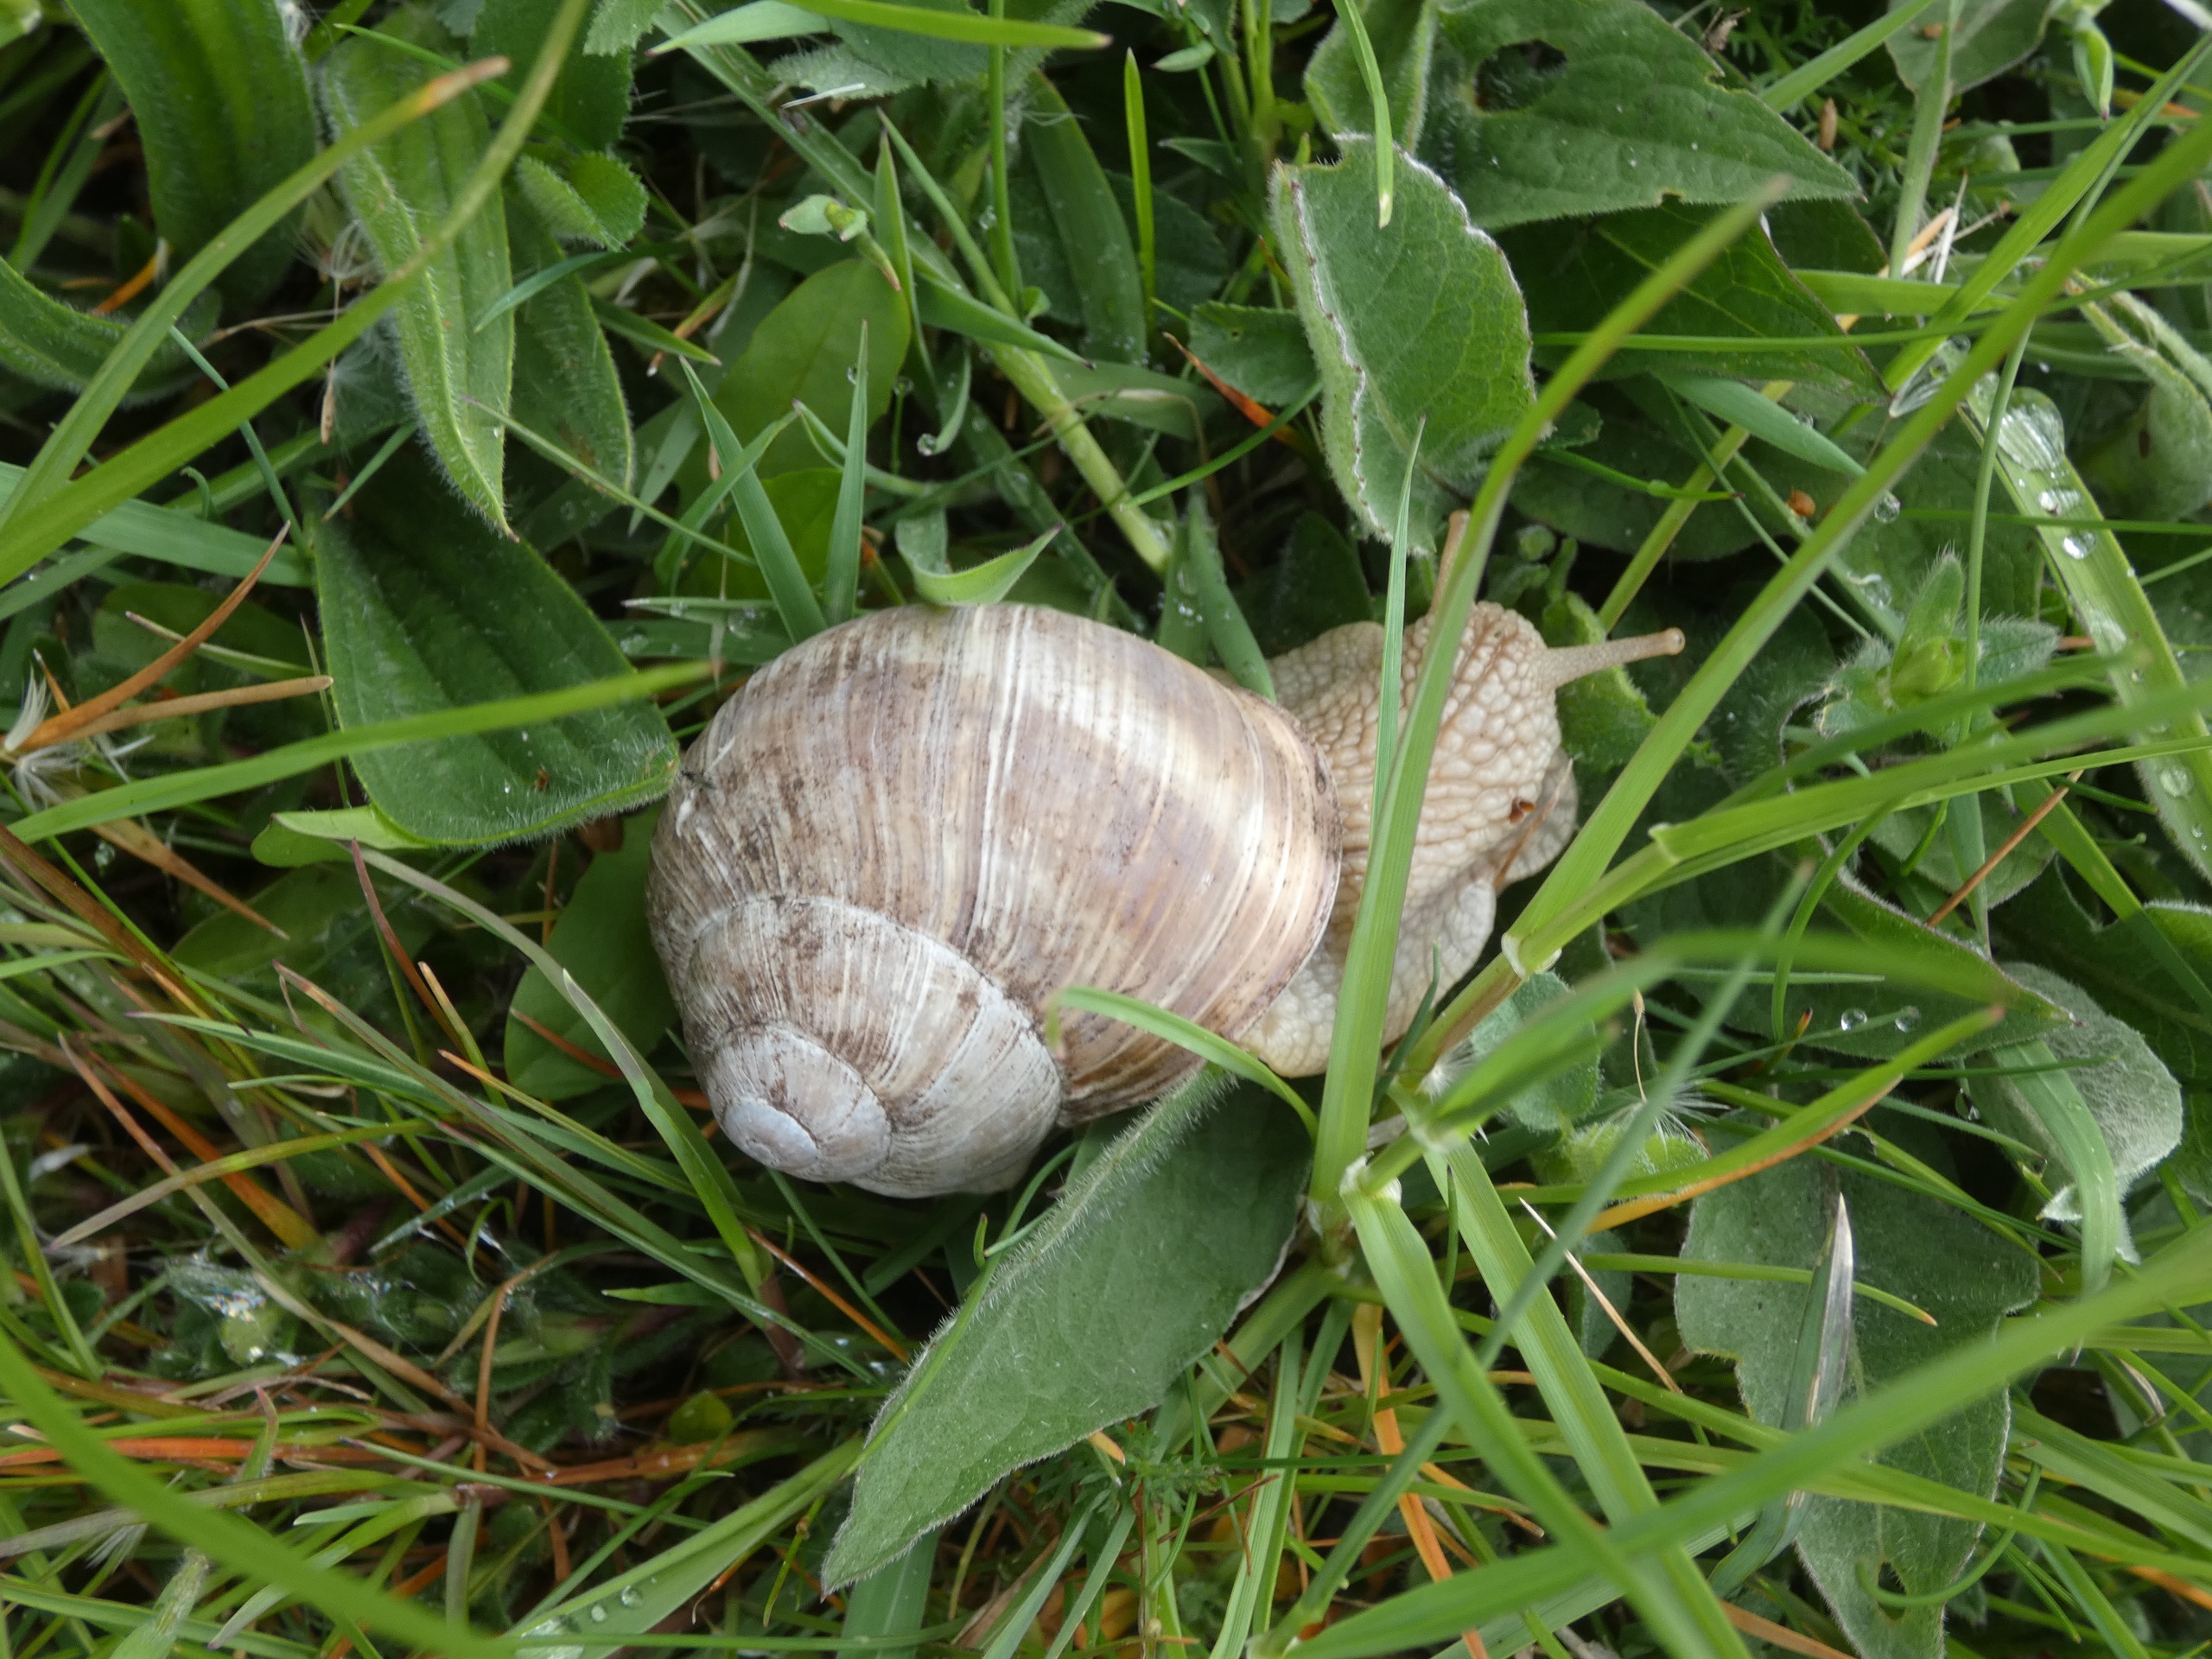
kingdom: Animalia
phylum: Mollusca
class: Gastropoda
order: Stylommatophora
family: Helicidae
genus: Helix
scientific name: Helix pomatia
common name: Vinbjergsnegl
